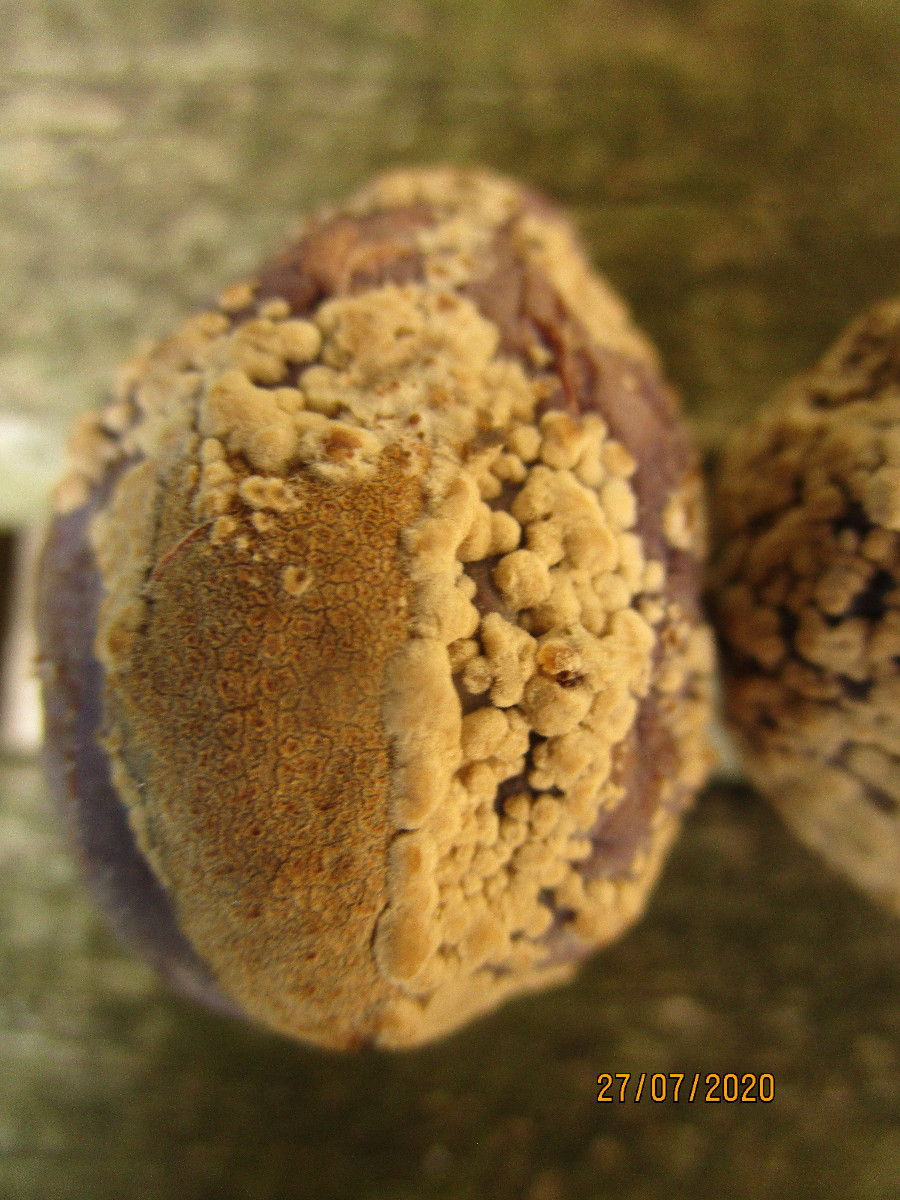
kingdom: Fungi
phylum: Ascomycota
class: Leotiomycetes
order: Helotiales
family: Sclerotiniaceae
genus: Monilinia
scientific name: Monilinia laxa
